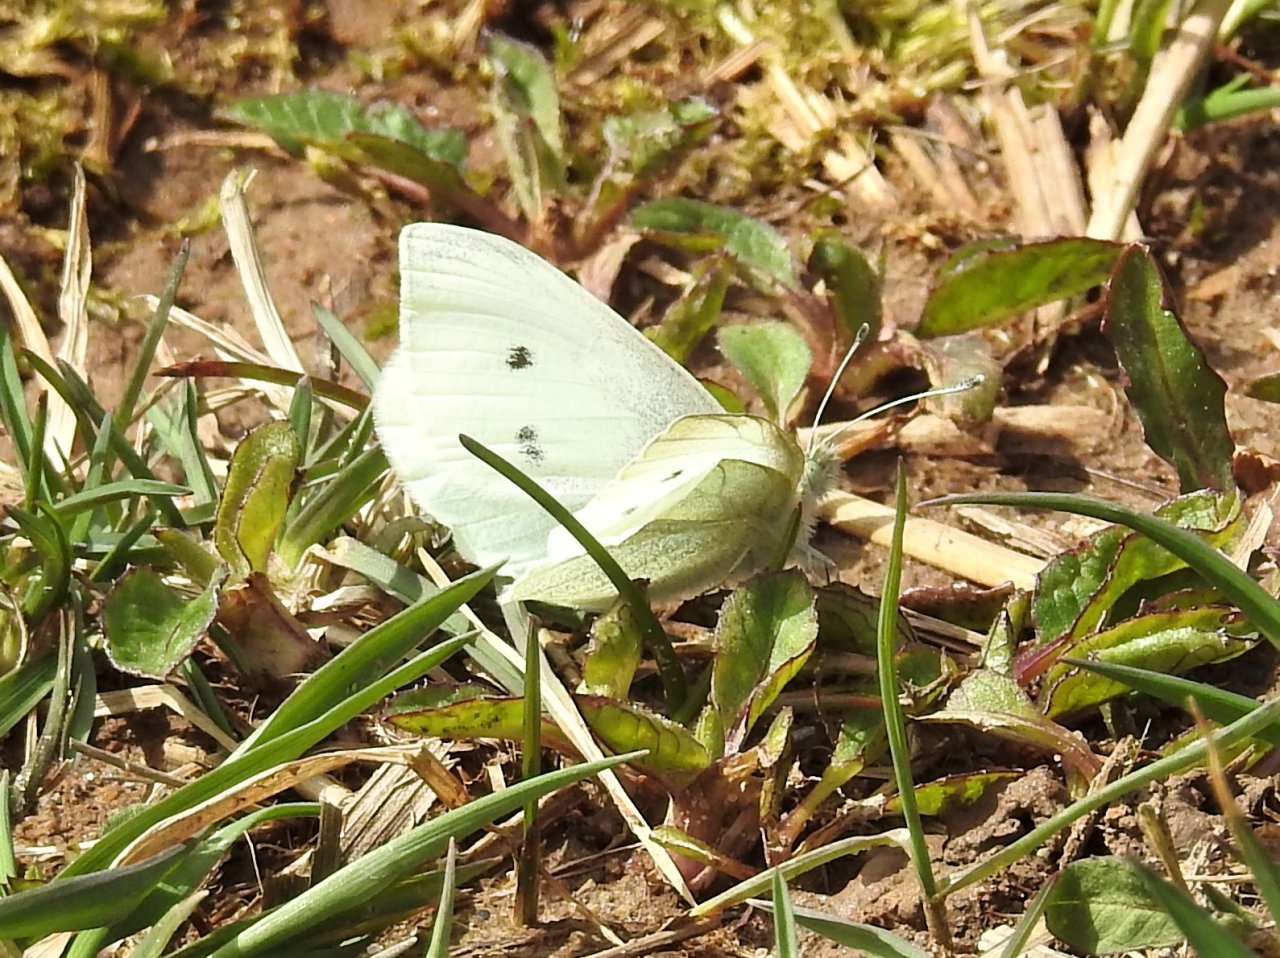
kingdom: Animalia
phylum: Arthropoda
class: Insecta
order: Lepidoptera
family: Pieridae
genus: Pieris
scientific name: Pieris rapae
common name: Cabbage White
